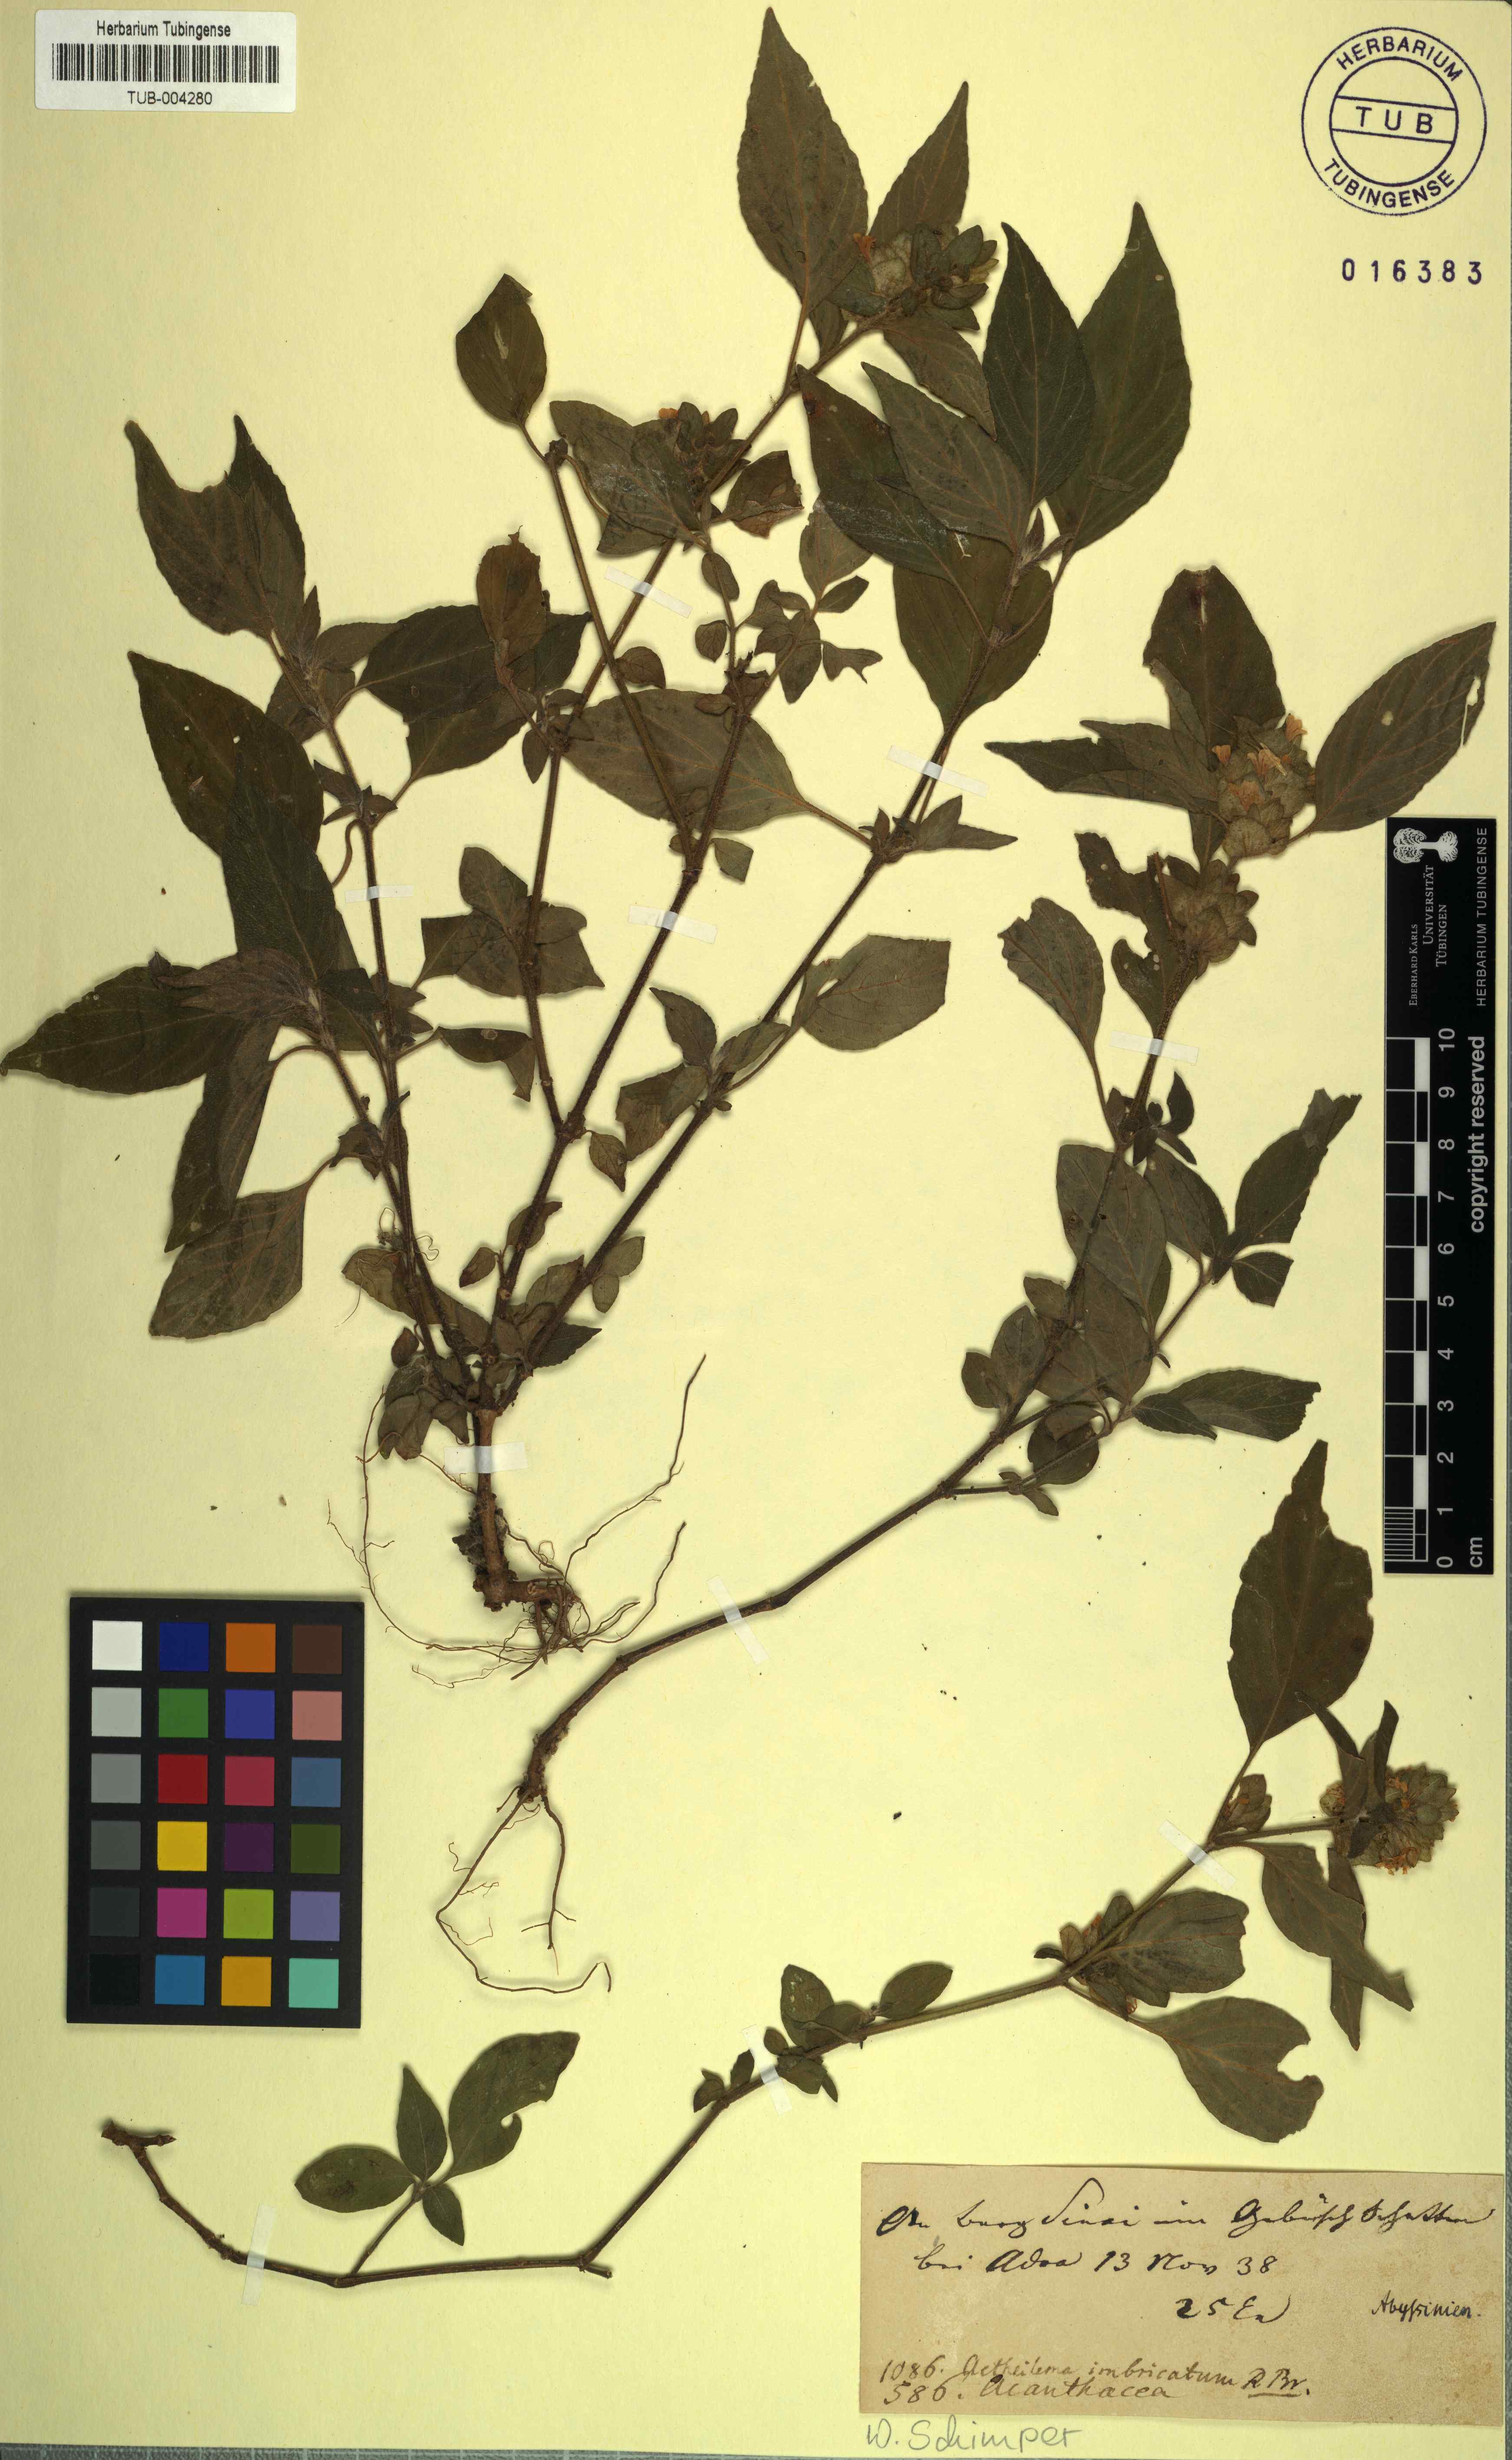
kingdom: Plantae
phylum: Tracheophyta
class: Magnoliopsida
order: Lamiales
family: Acanthaceae
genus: Phaulopsis
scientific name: Phaulopsis barteri
